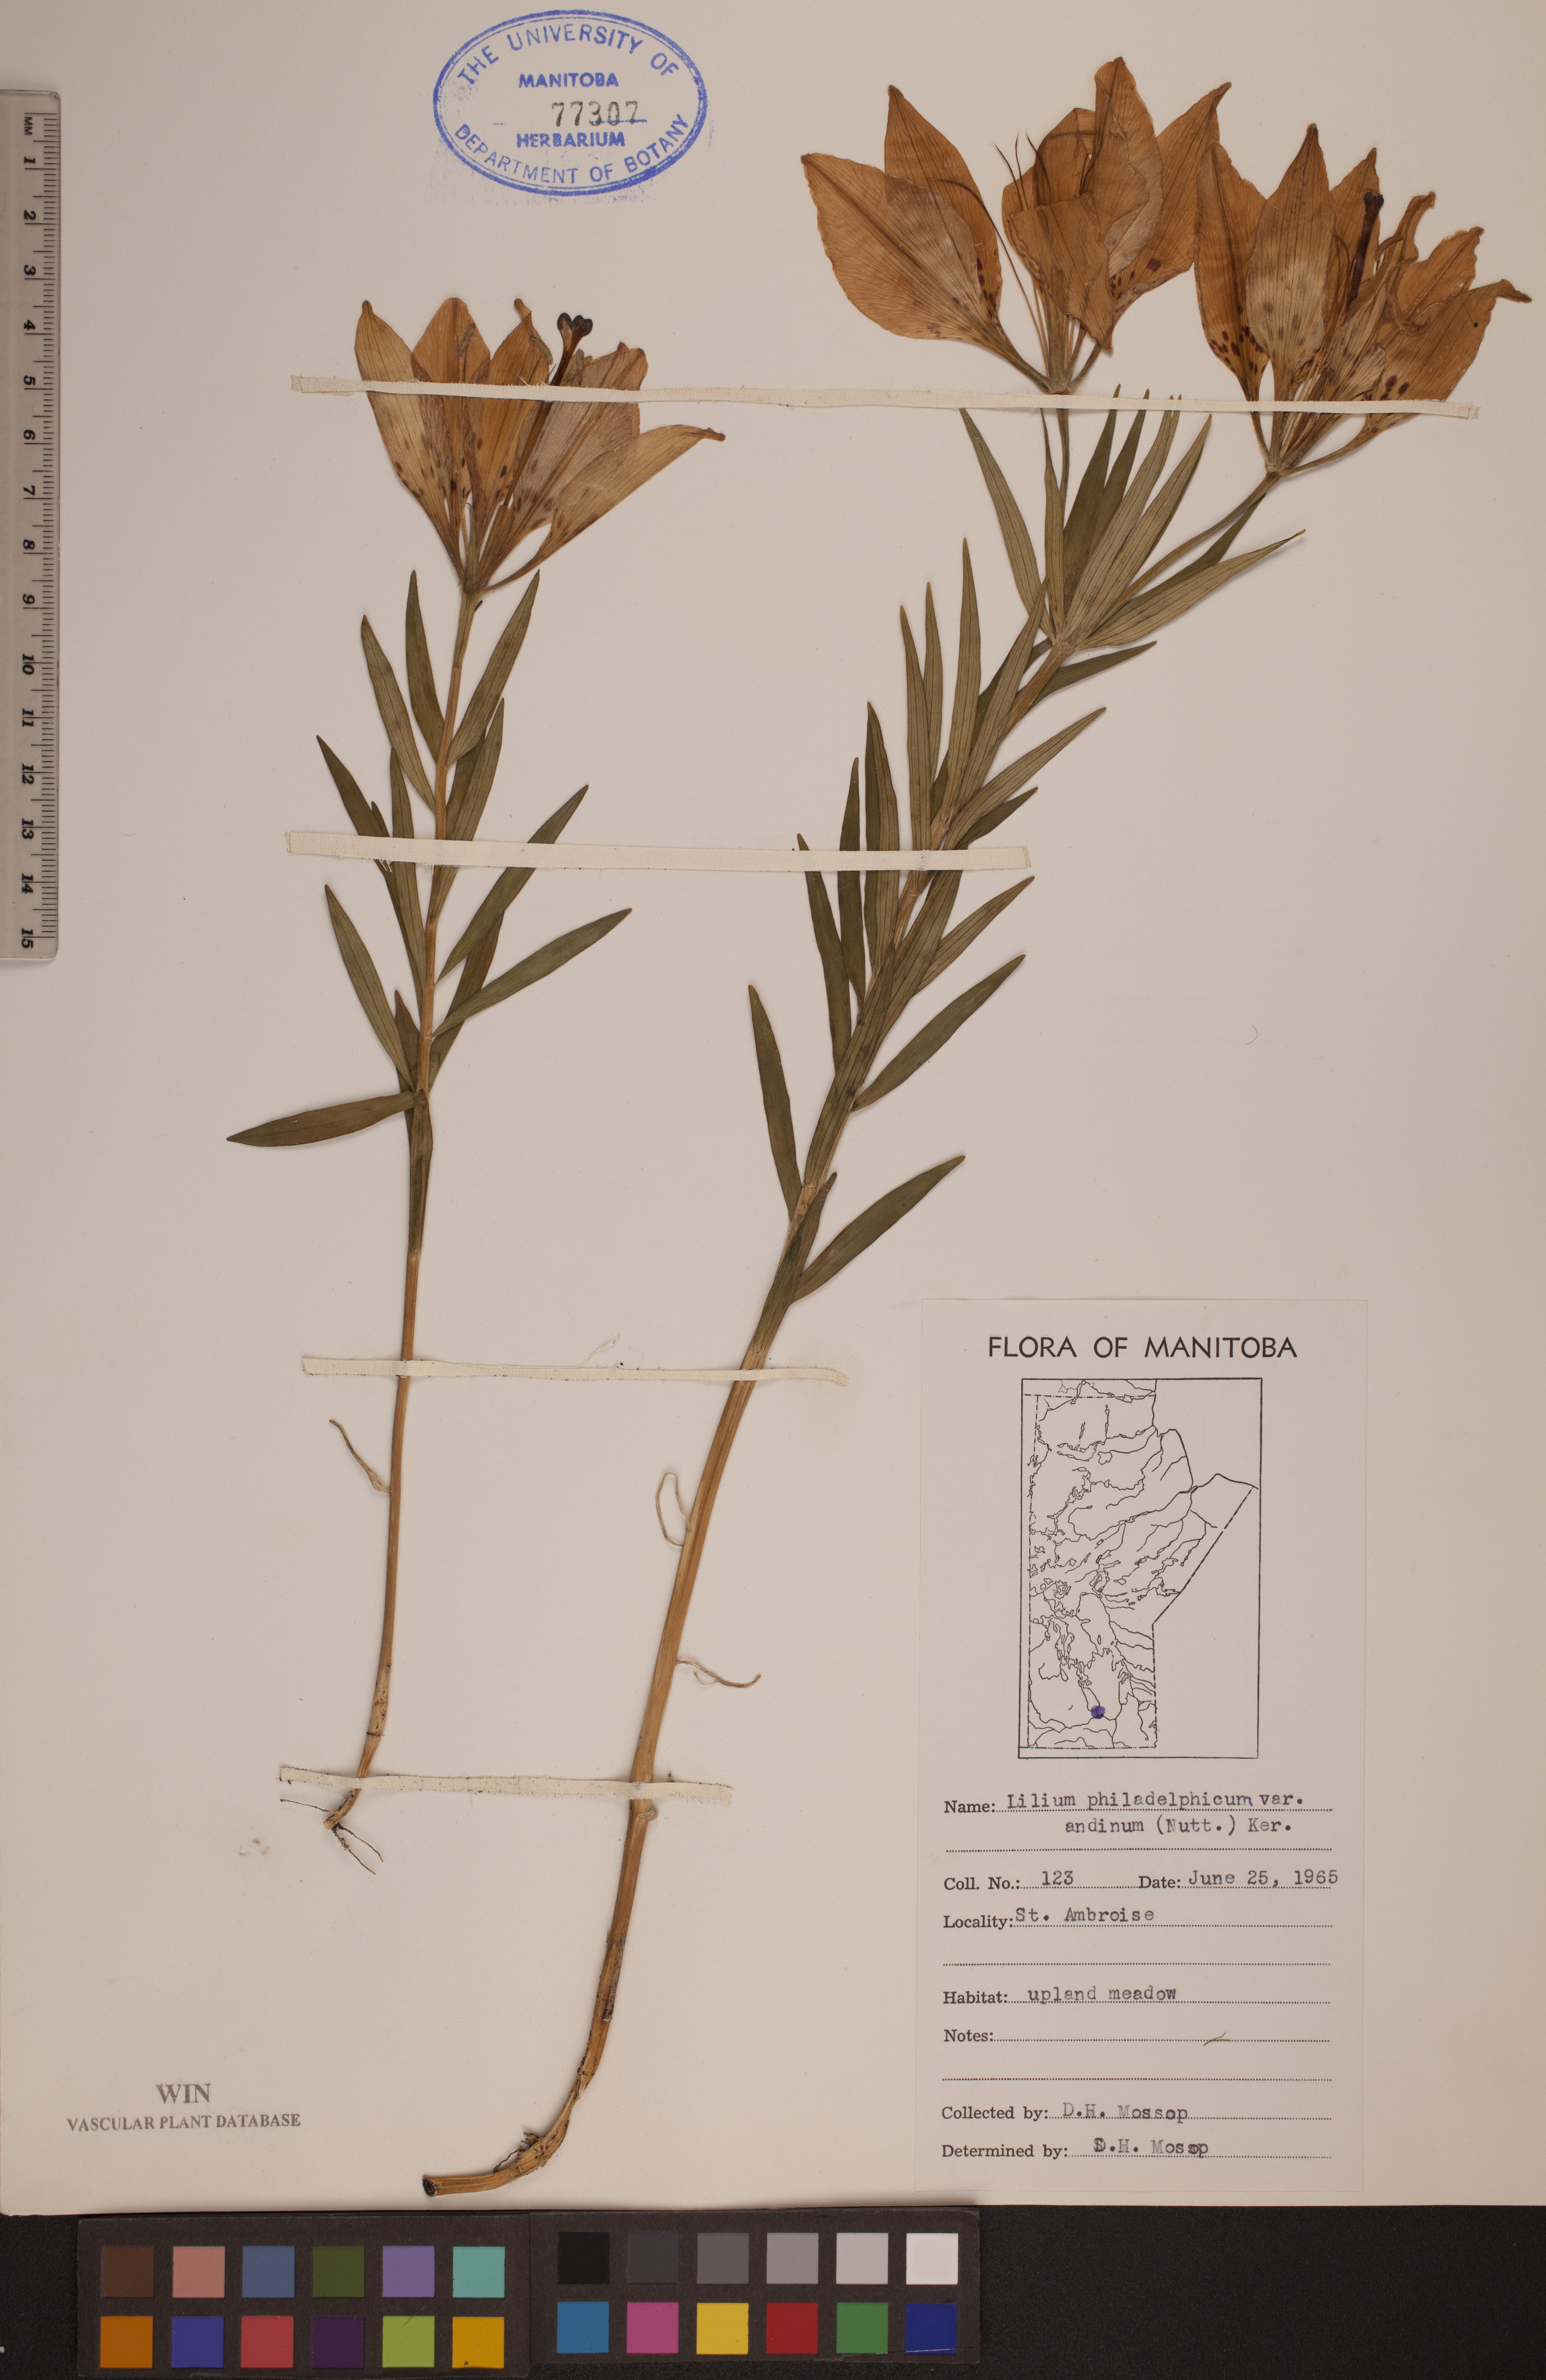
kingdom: Plantae
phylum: Tracheophyta
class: Liliopsida
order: Liliales
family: Liliaceae
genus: Lilium
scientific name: Lilium philadelphicum
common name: Red lily
